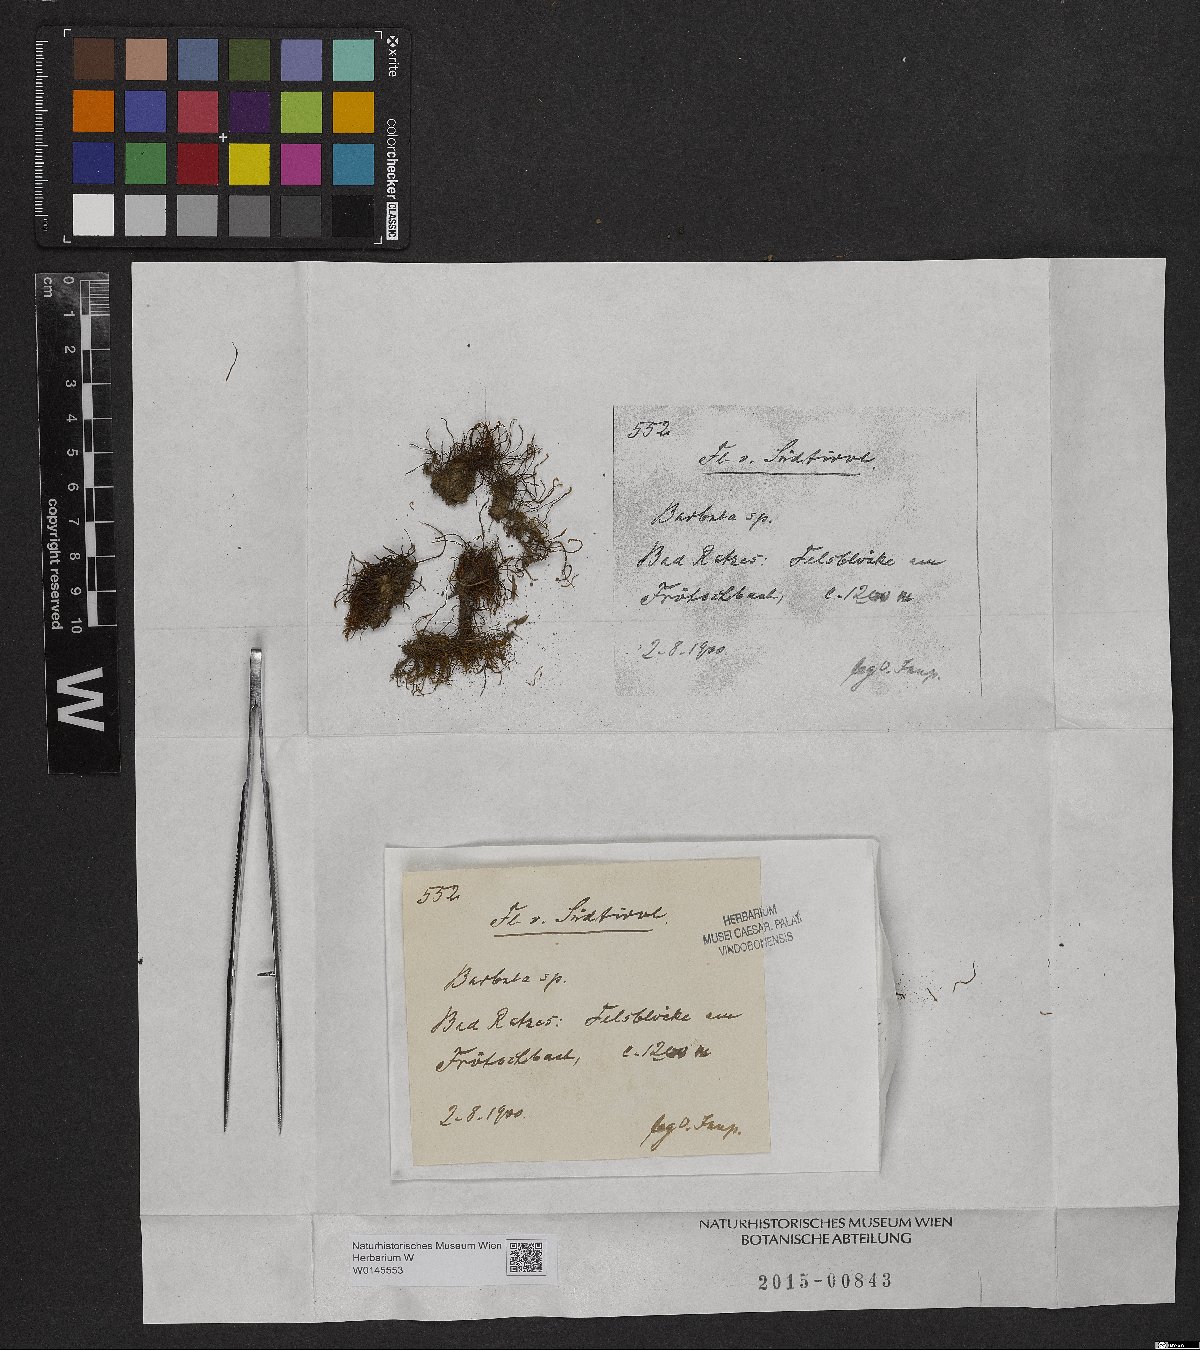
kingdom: Plantae
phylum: Bryophyta
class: Bryopsida
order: Pottiales
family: Pottiaceae
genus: Barbula
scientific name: Barbula
